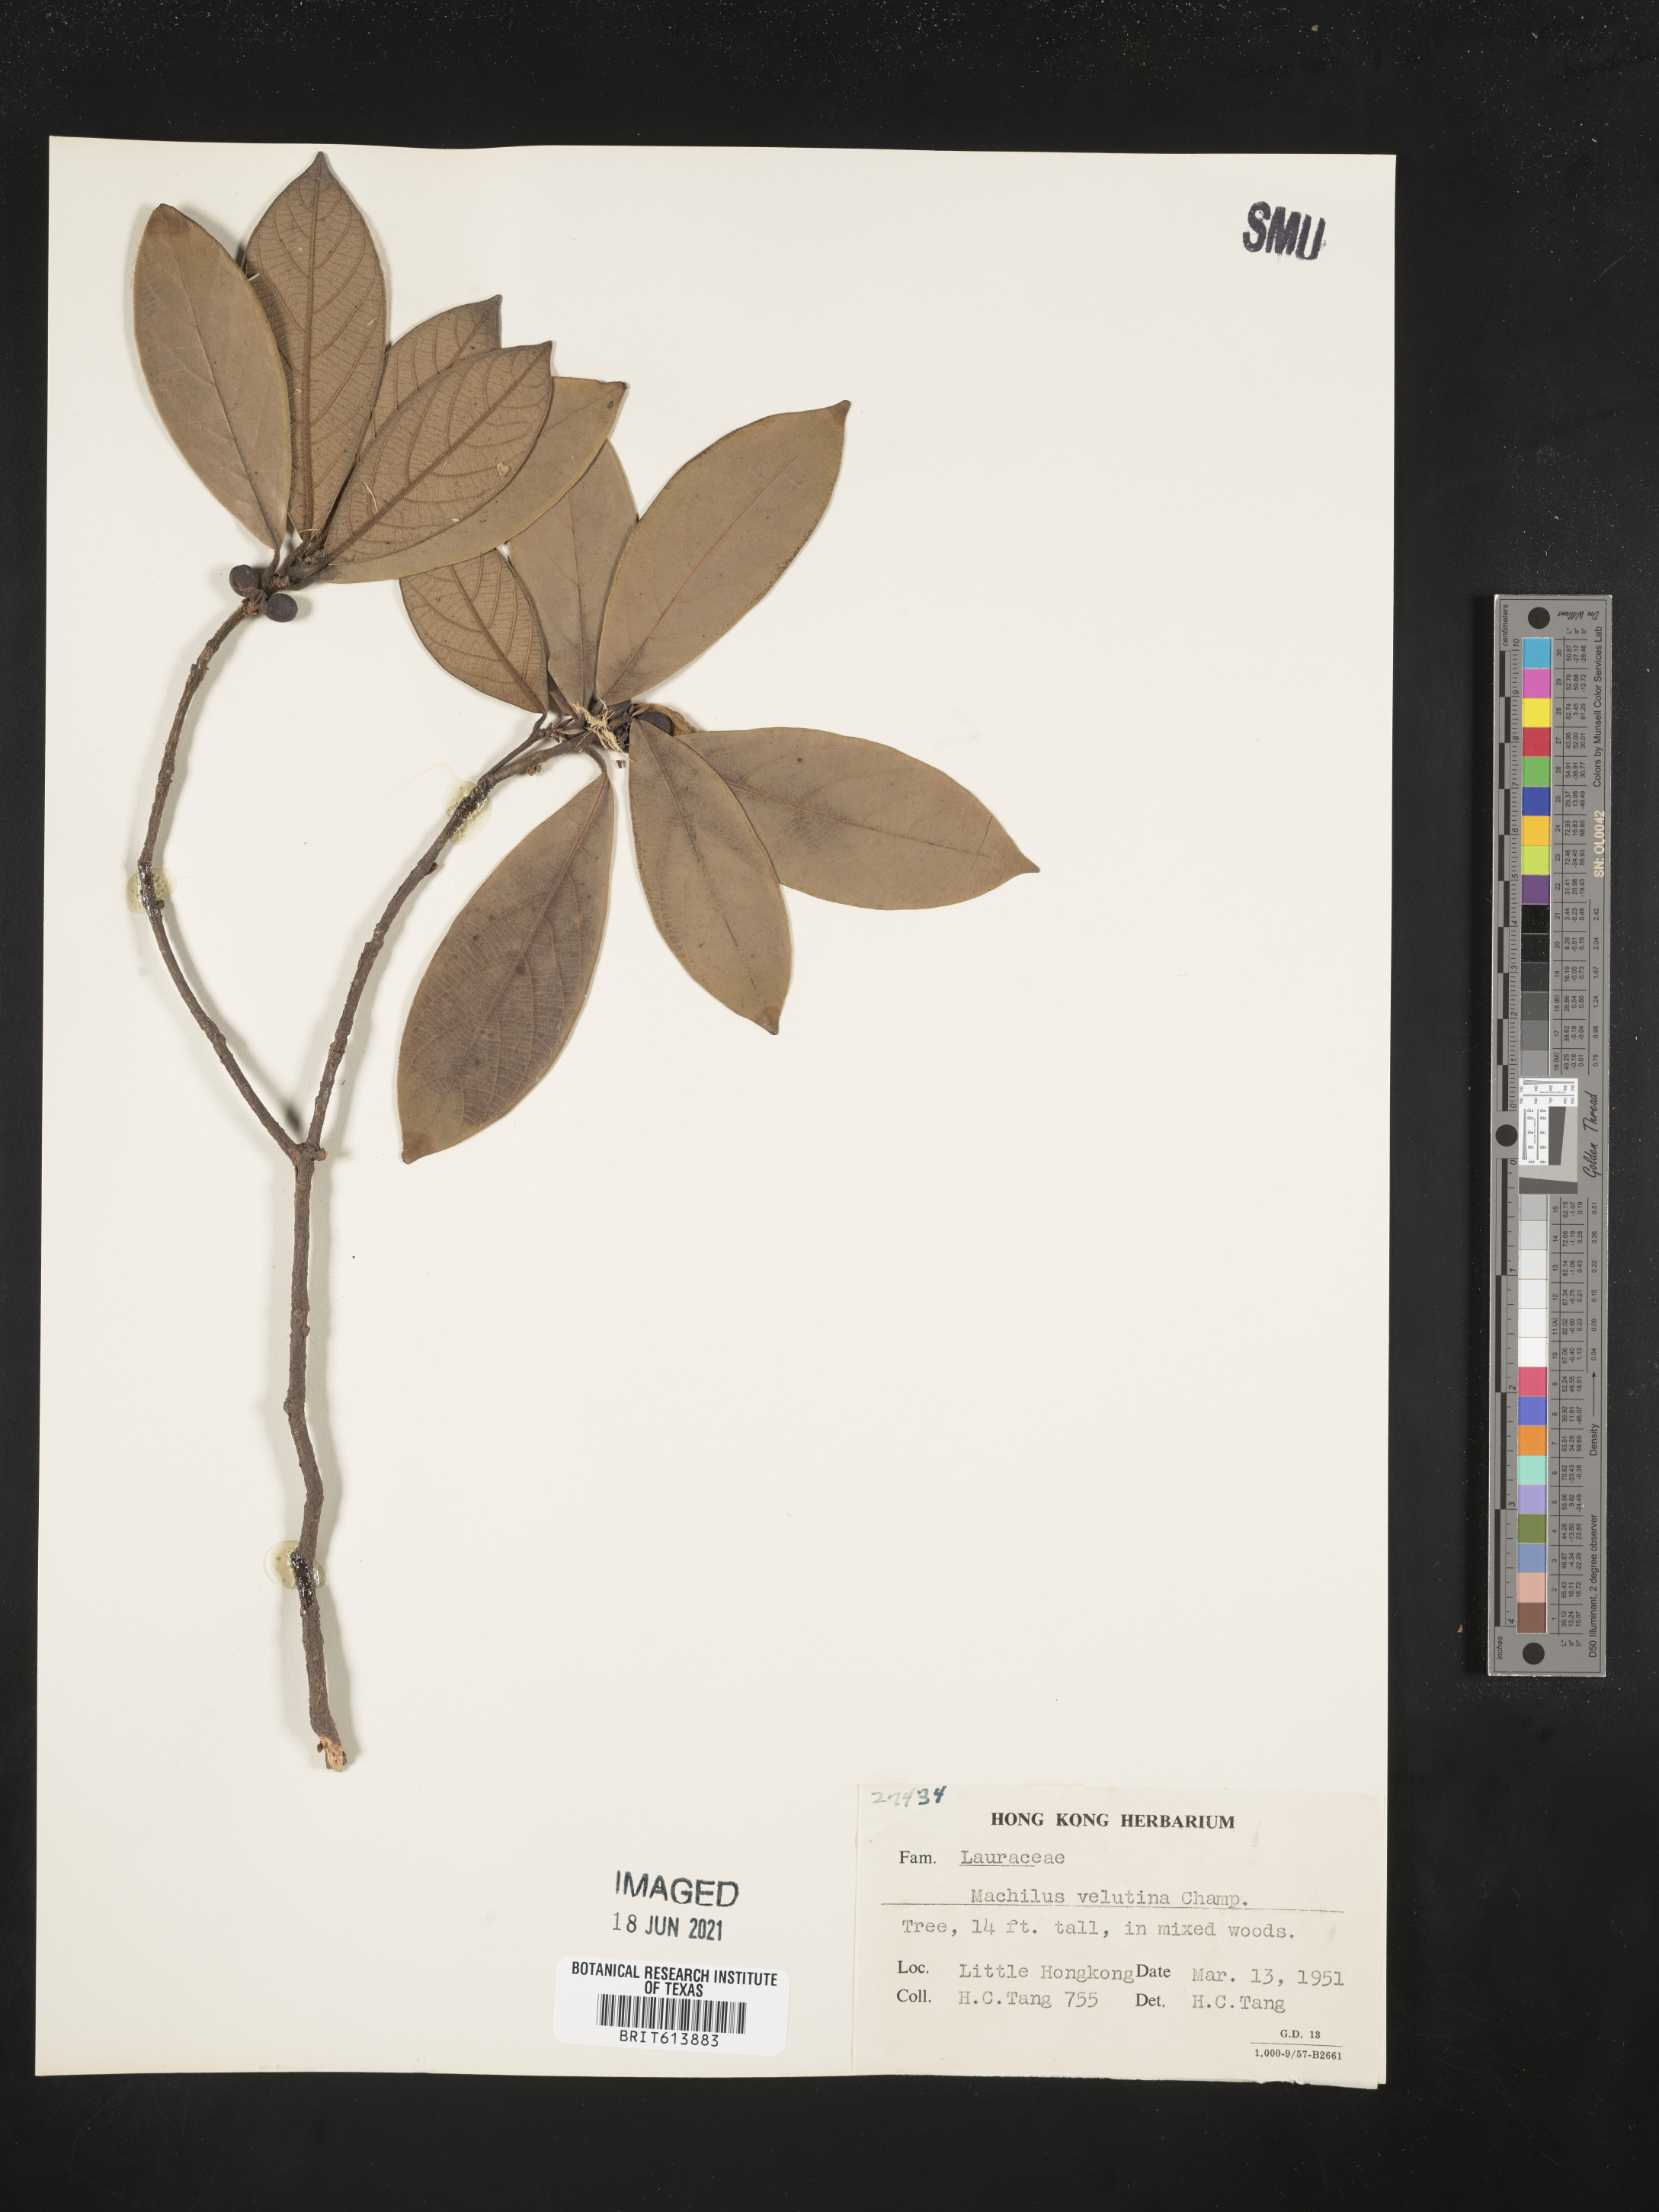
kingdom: Plantae
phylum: Tracheophyta
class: Magnoliopsida
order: Laurales
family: Lauraceae
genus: Machilus
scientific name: Machilus velutina
